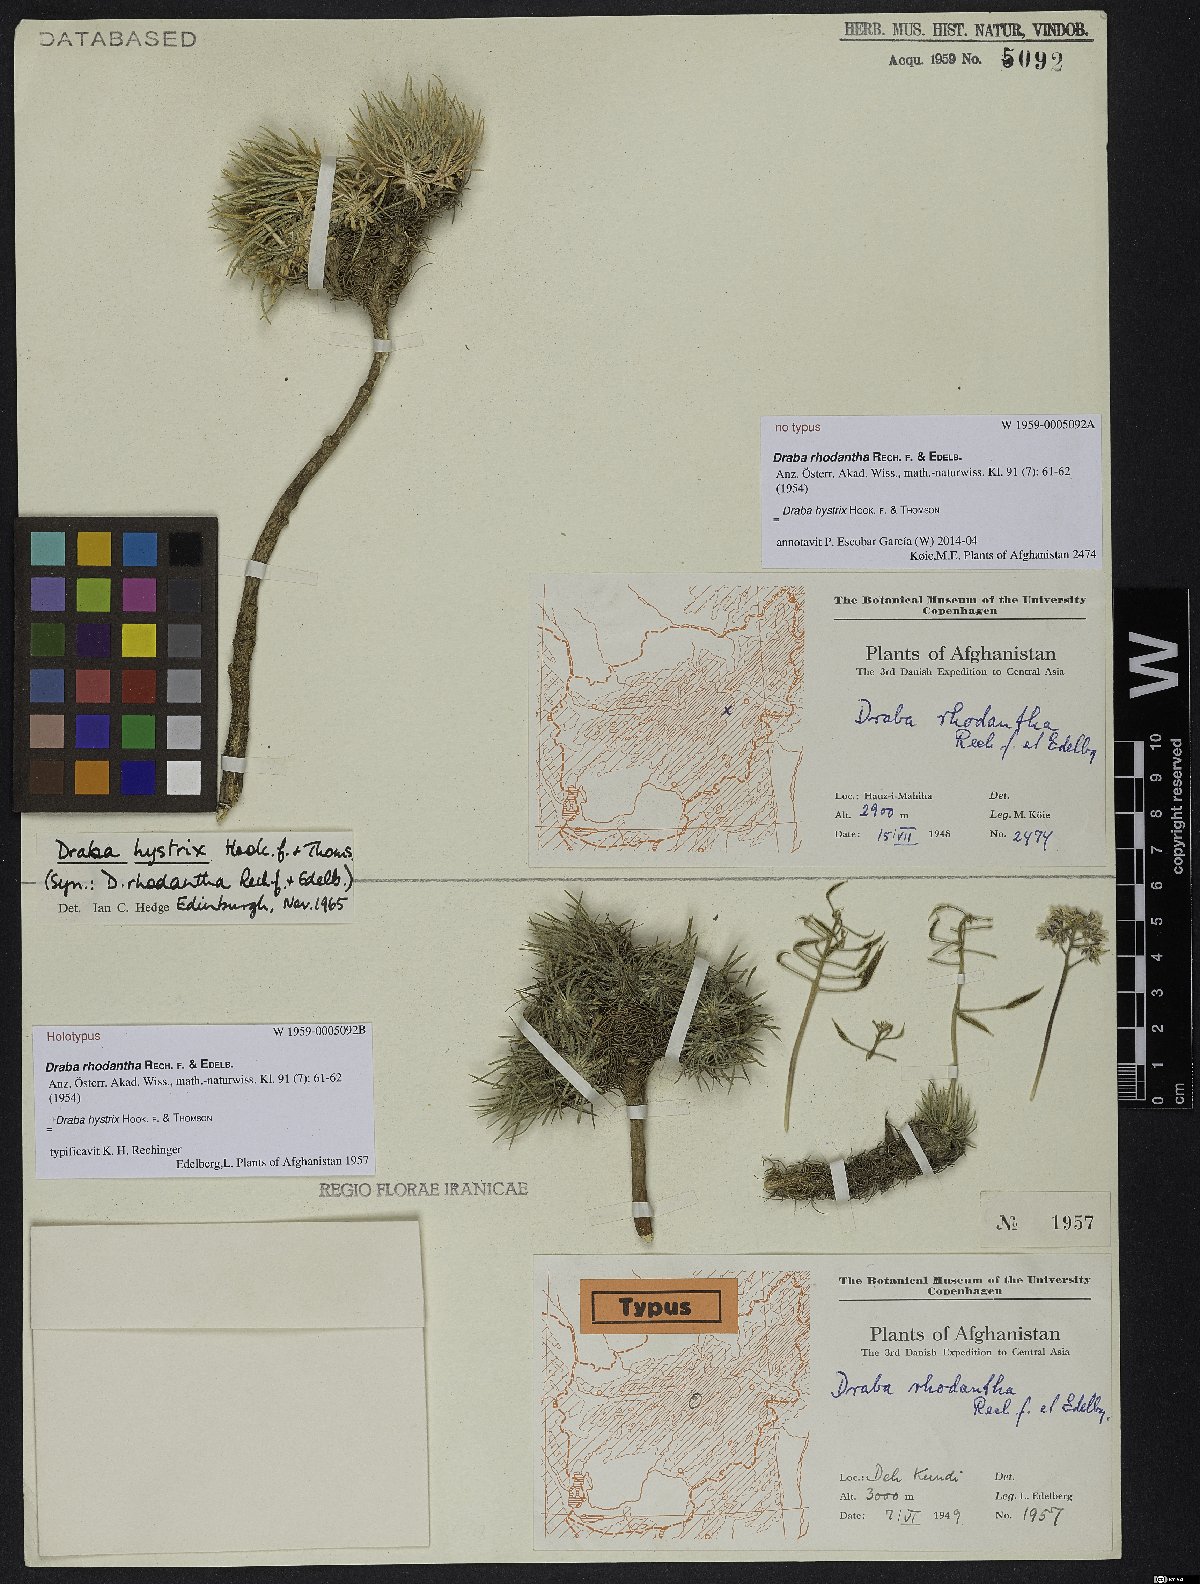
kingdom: Plantae
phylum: Tracheophyta
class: Magnoliopsida
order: Brassicales
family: Brassicaceae
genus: Pseudodraba
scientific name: Pseudodraba hystrix
